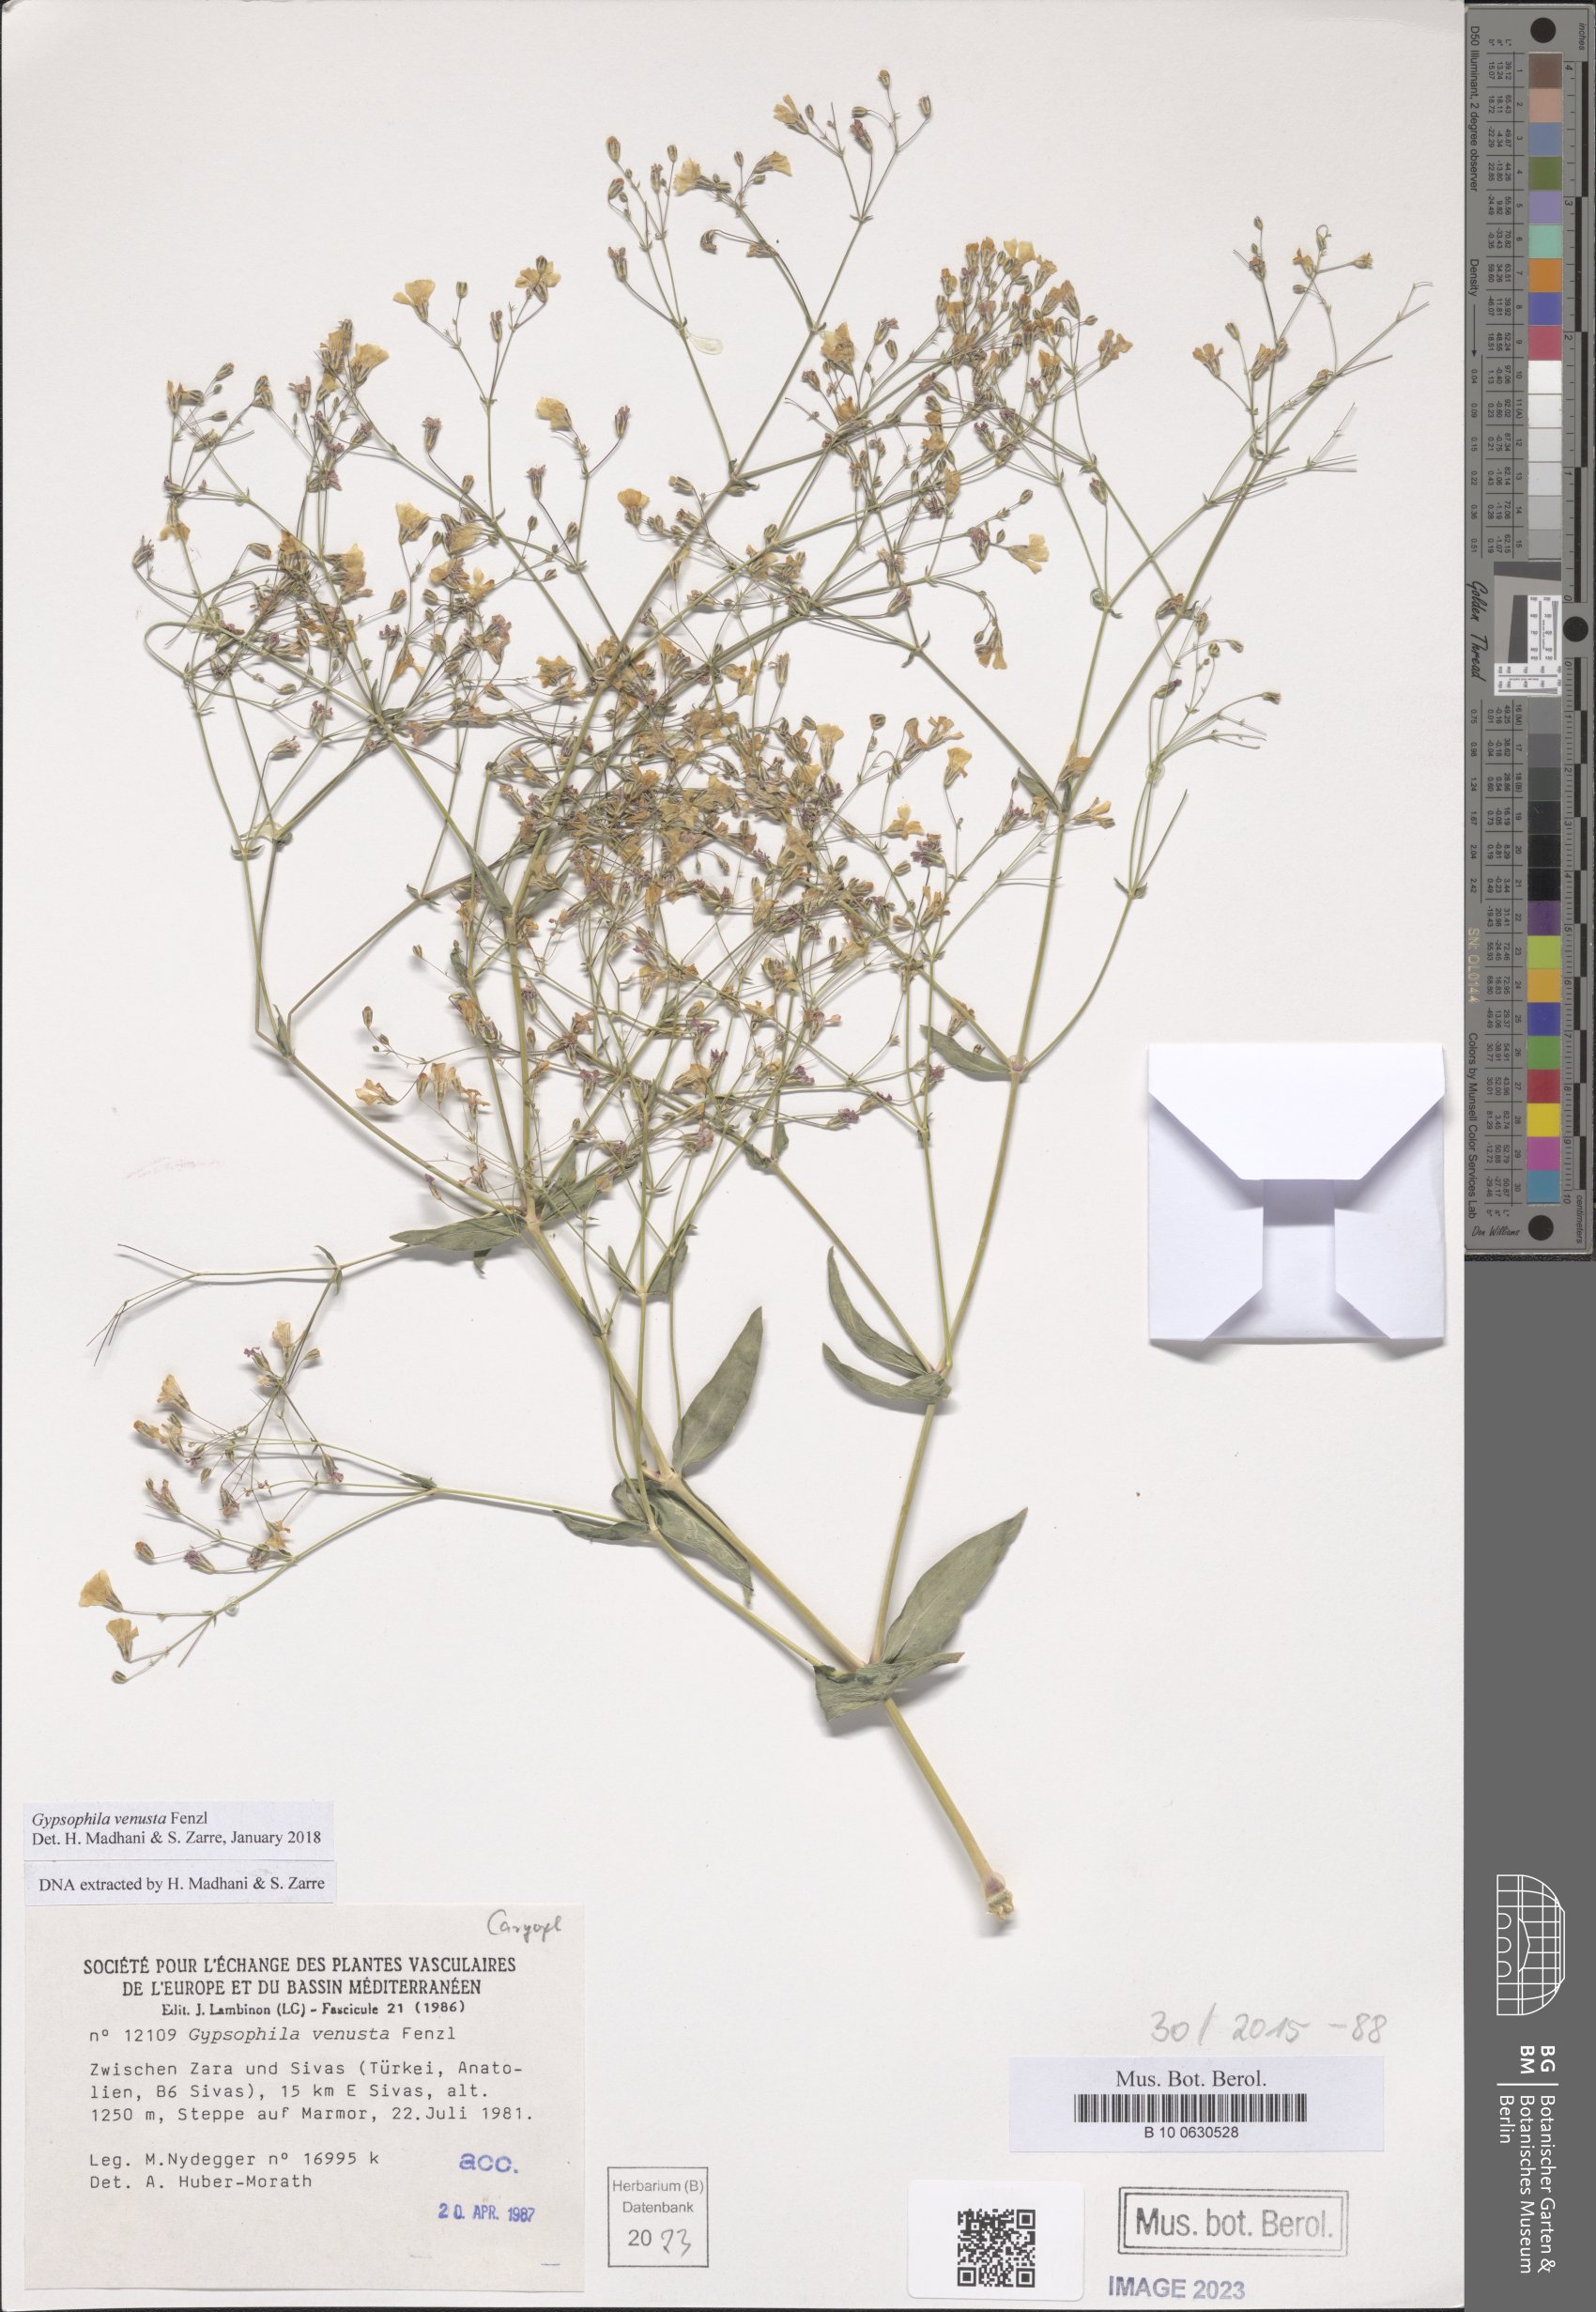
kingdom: Plantae
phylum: Tracheophyta
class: Magnoliopsida
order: Caryophyllales
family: Caryophyllaceae
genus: Gypsophila
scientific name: Gypsophila venusta
